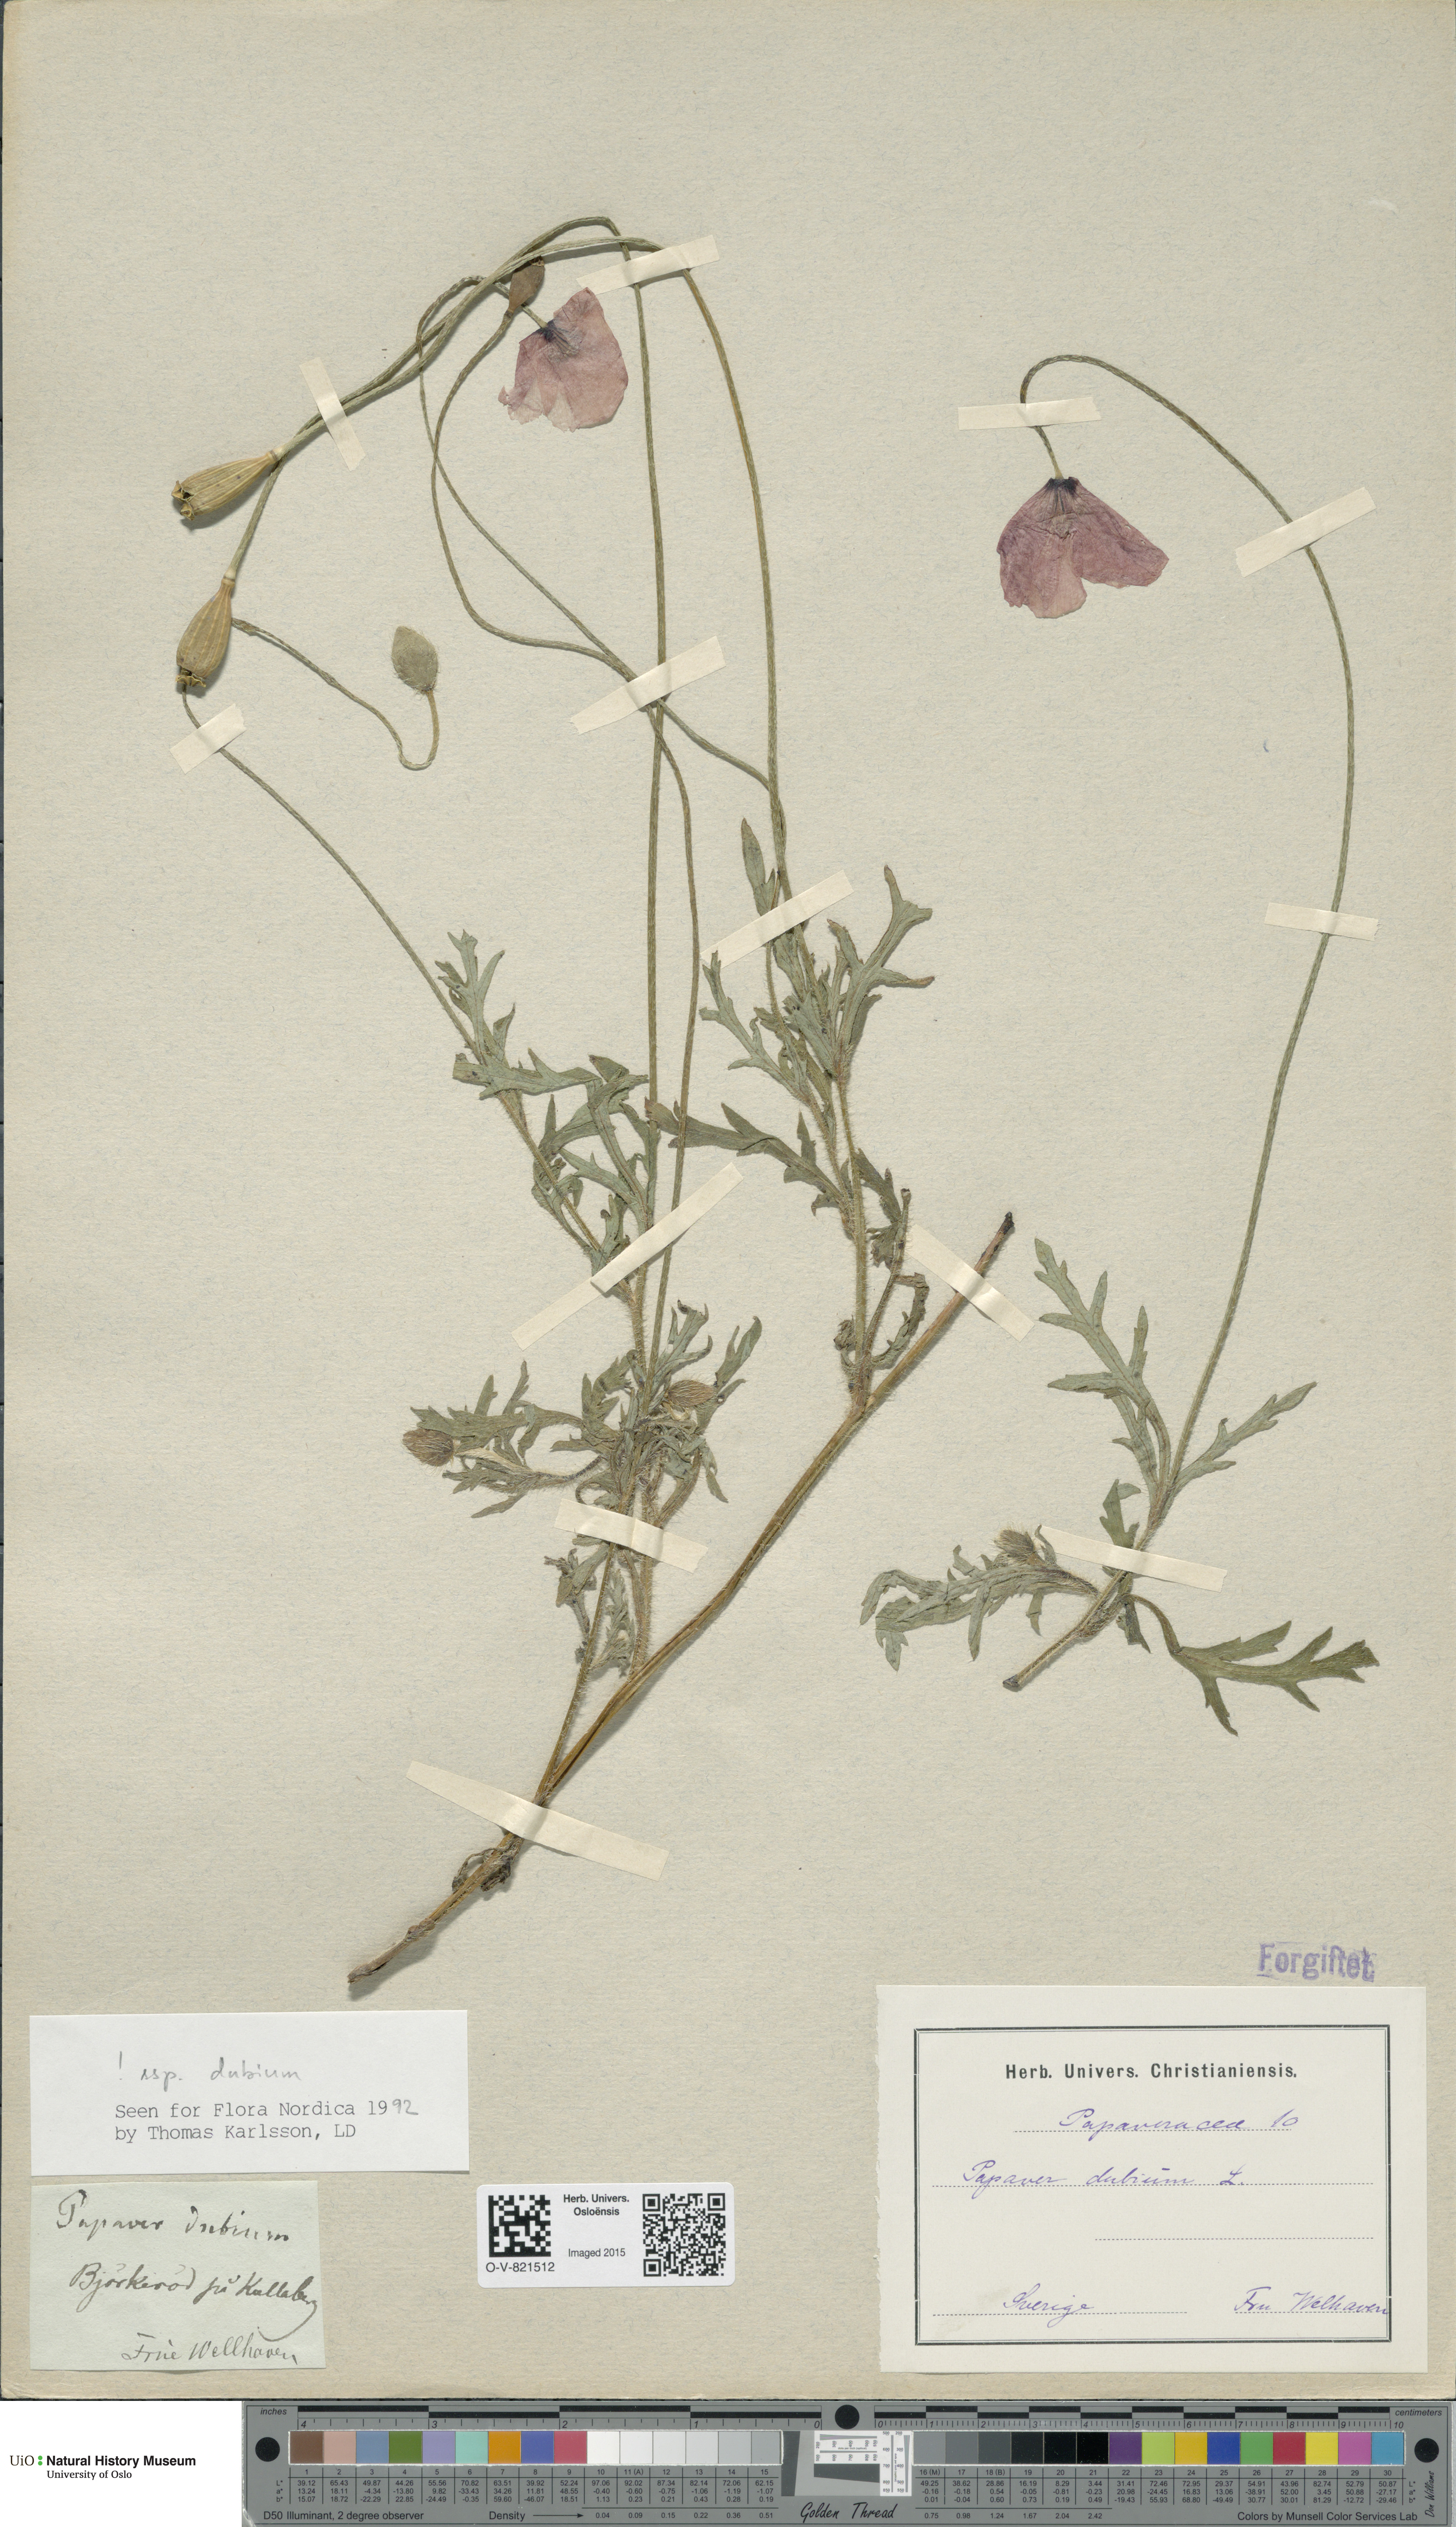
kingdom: Plantae
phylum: Tracheophyta
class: Magnoliopsida
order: Ranunculales
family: Papaveraceae
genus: Papaver
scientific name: Papaver dubium
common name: Long-headed poppy
